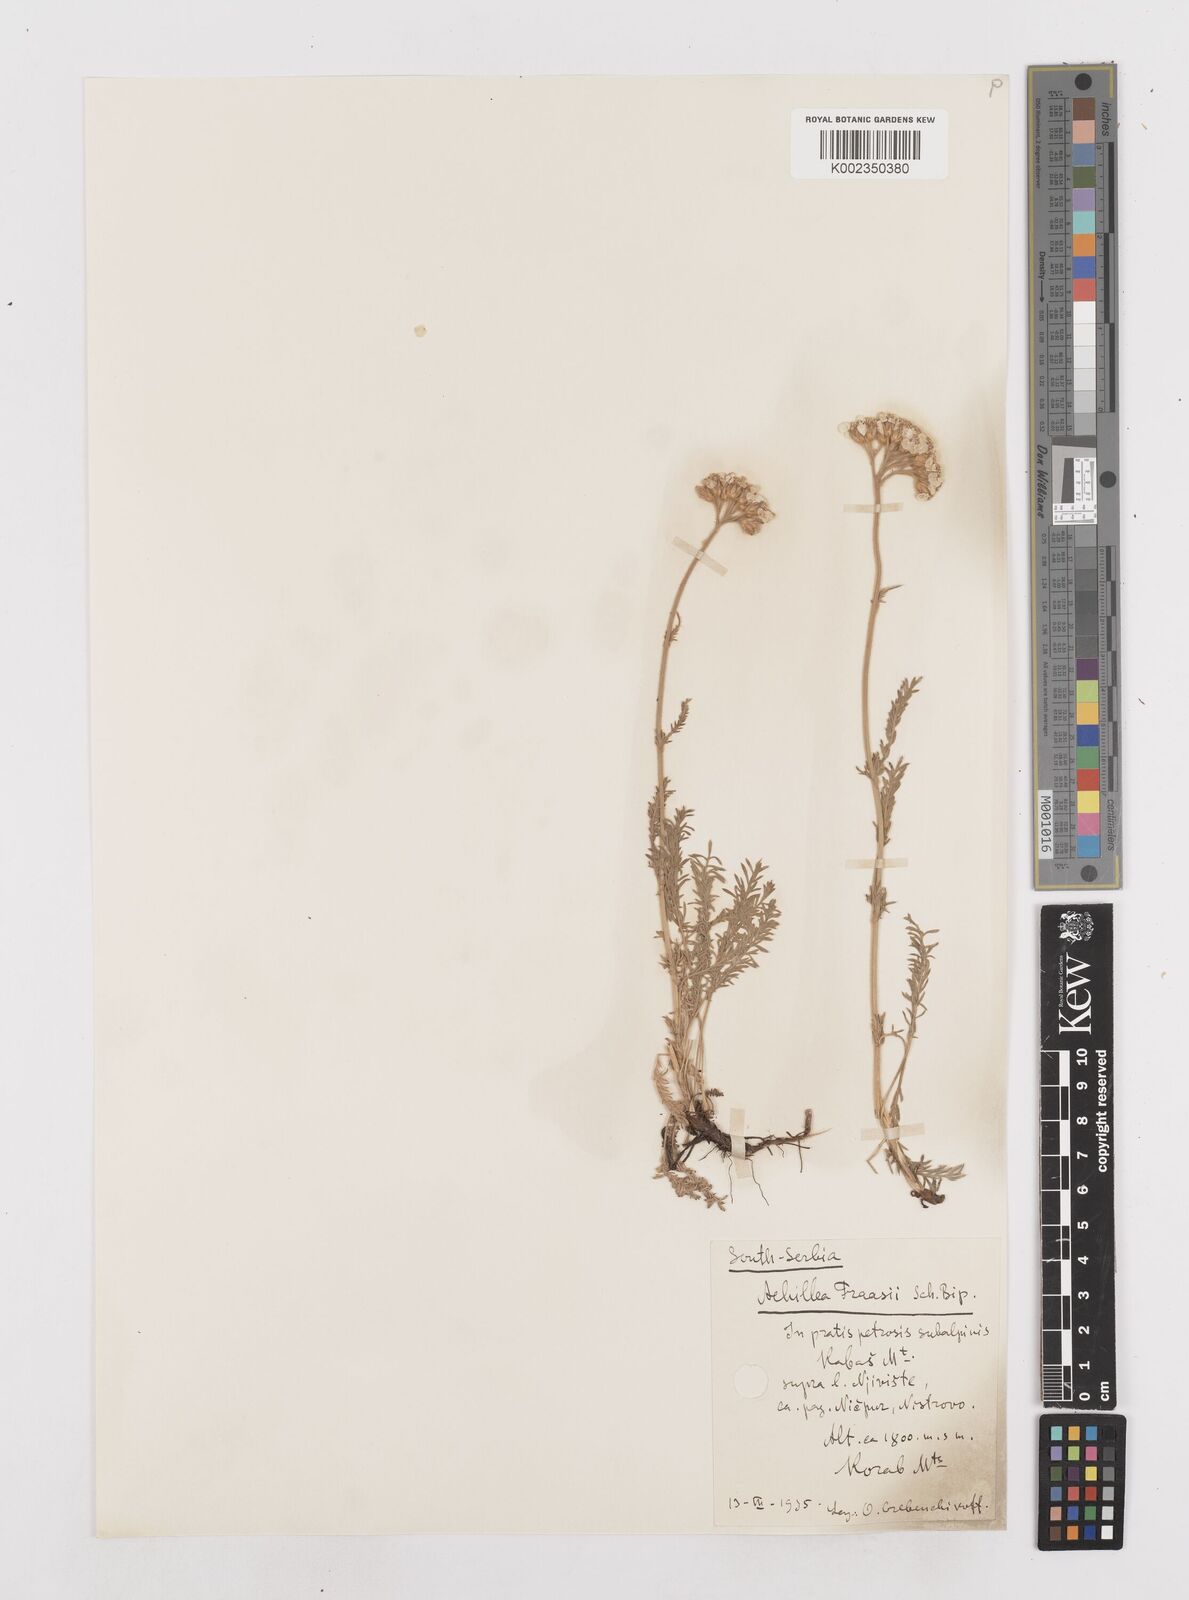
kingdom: Plantae
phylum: Tracheophyta
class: Magnoliopsida
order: Asterales
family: Asteraceae
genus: Achillea
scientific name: Achillea fraasii
